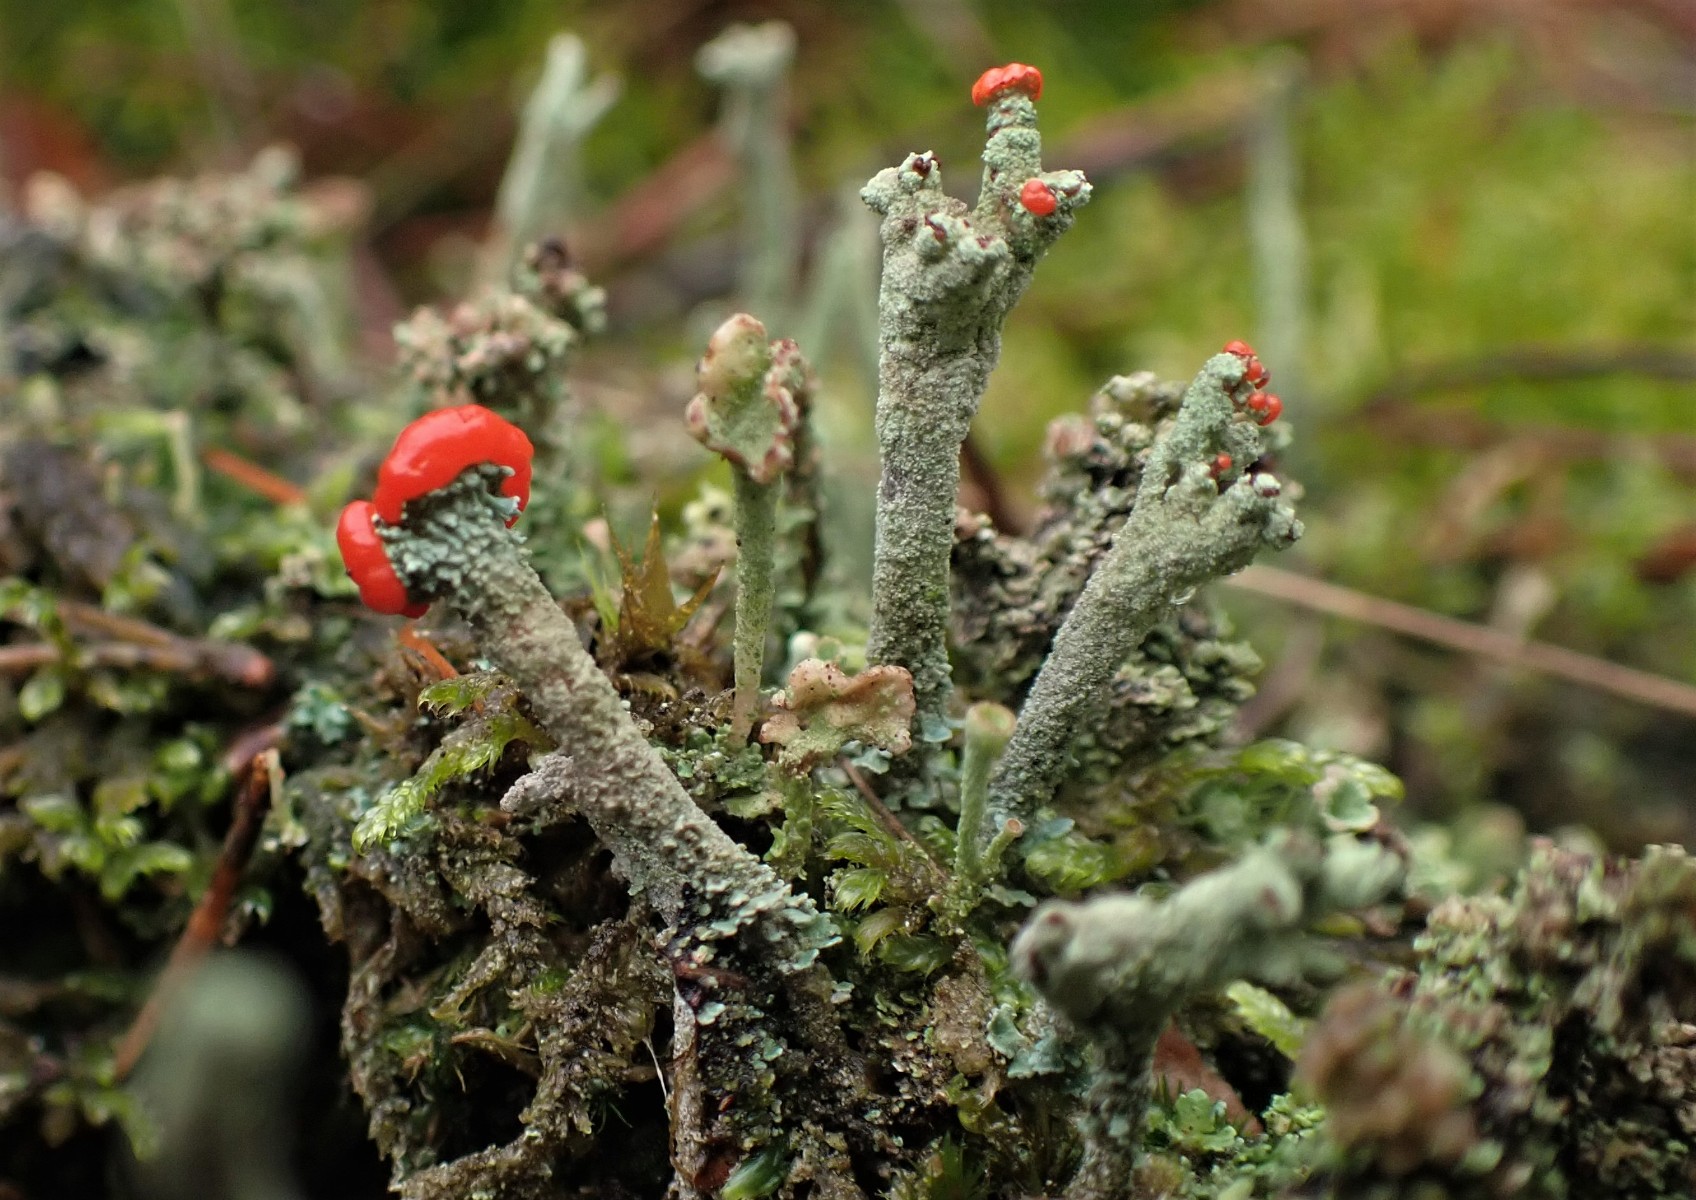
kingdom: Fungi
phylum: Ascomycota
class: Lecanoromycetes
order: Lecanorales
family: Cladoniaceae
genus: Cladonia
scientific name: Cladonia floerkeana
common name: lakrød bægerlav
